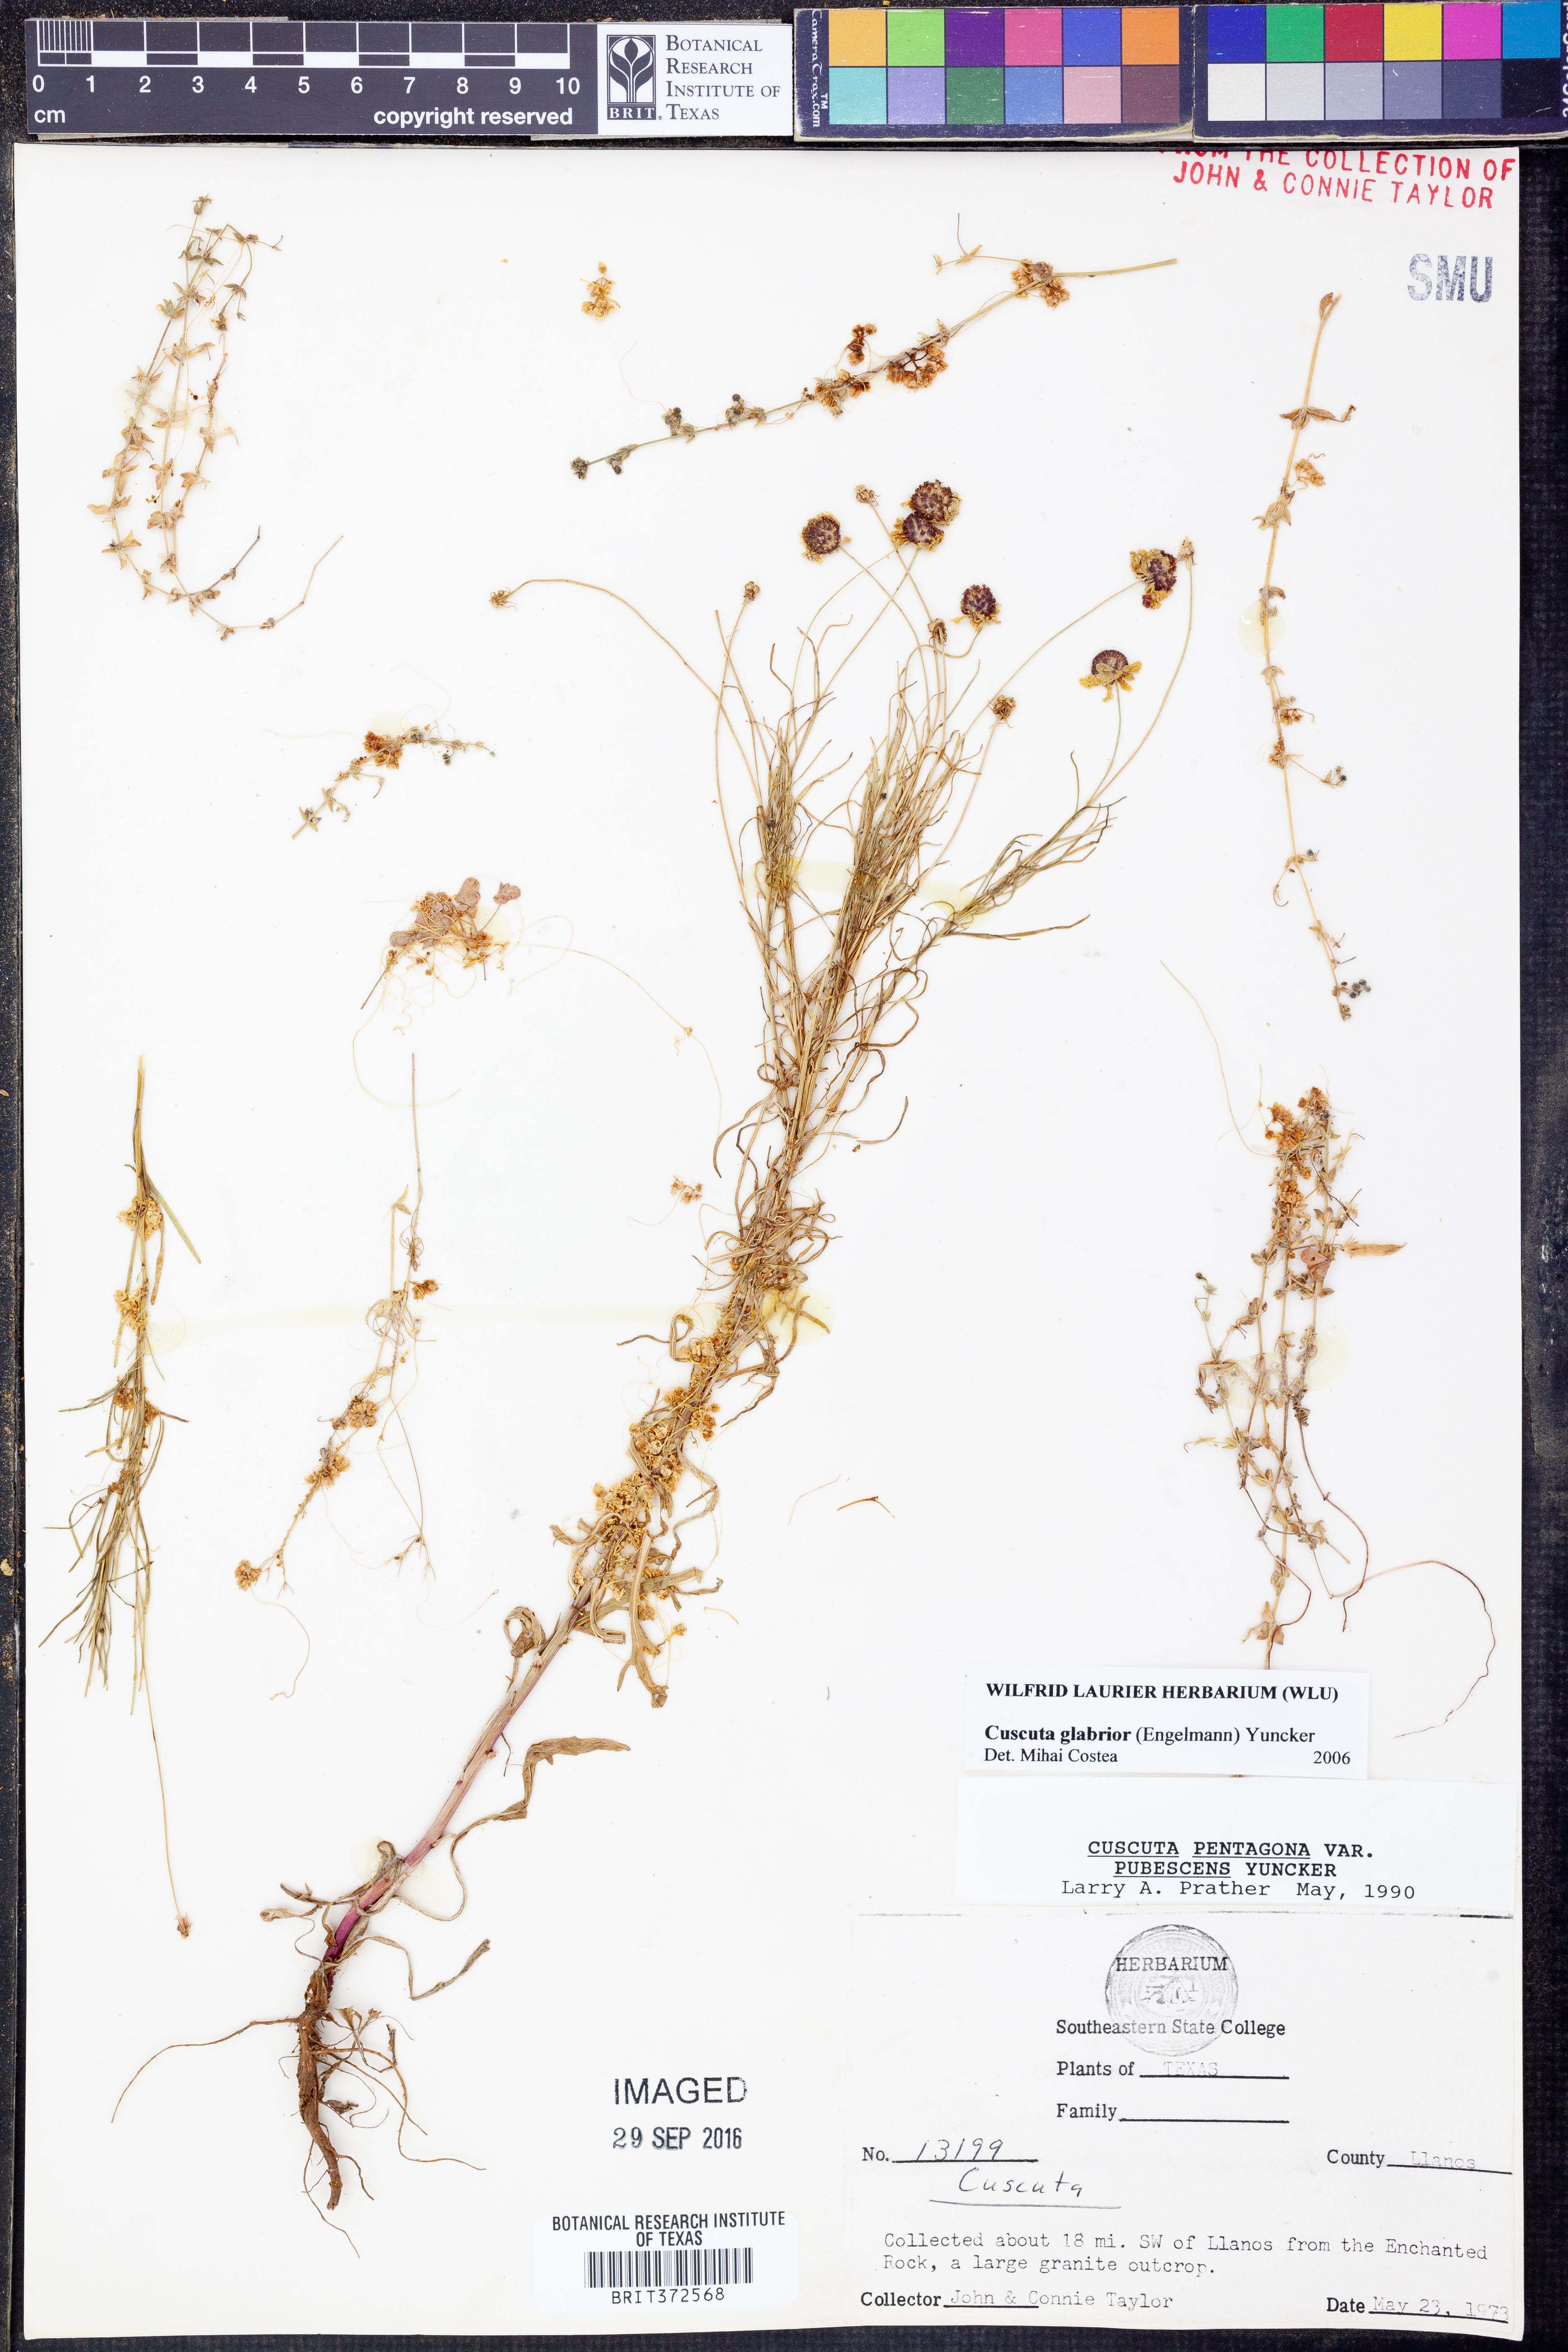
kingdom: Plantae
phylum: Tracheophyta
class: Magnoliopsida
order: Solanales
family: Convolvulaceae
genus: Cuscuta
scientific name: Cuscuta glabrior
